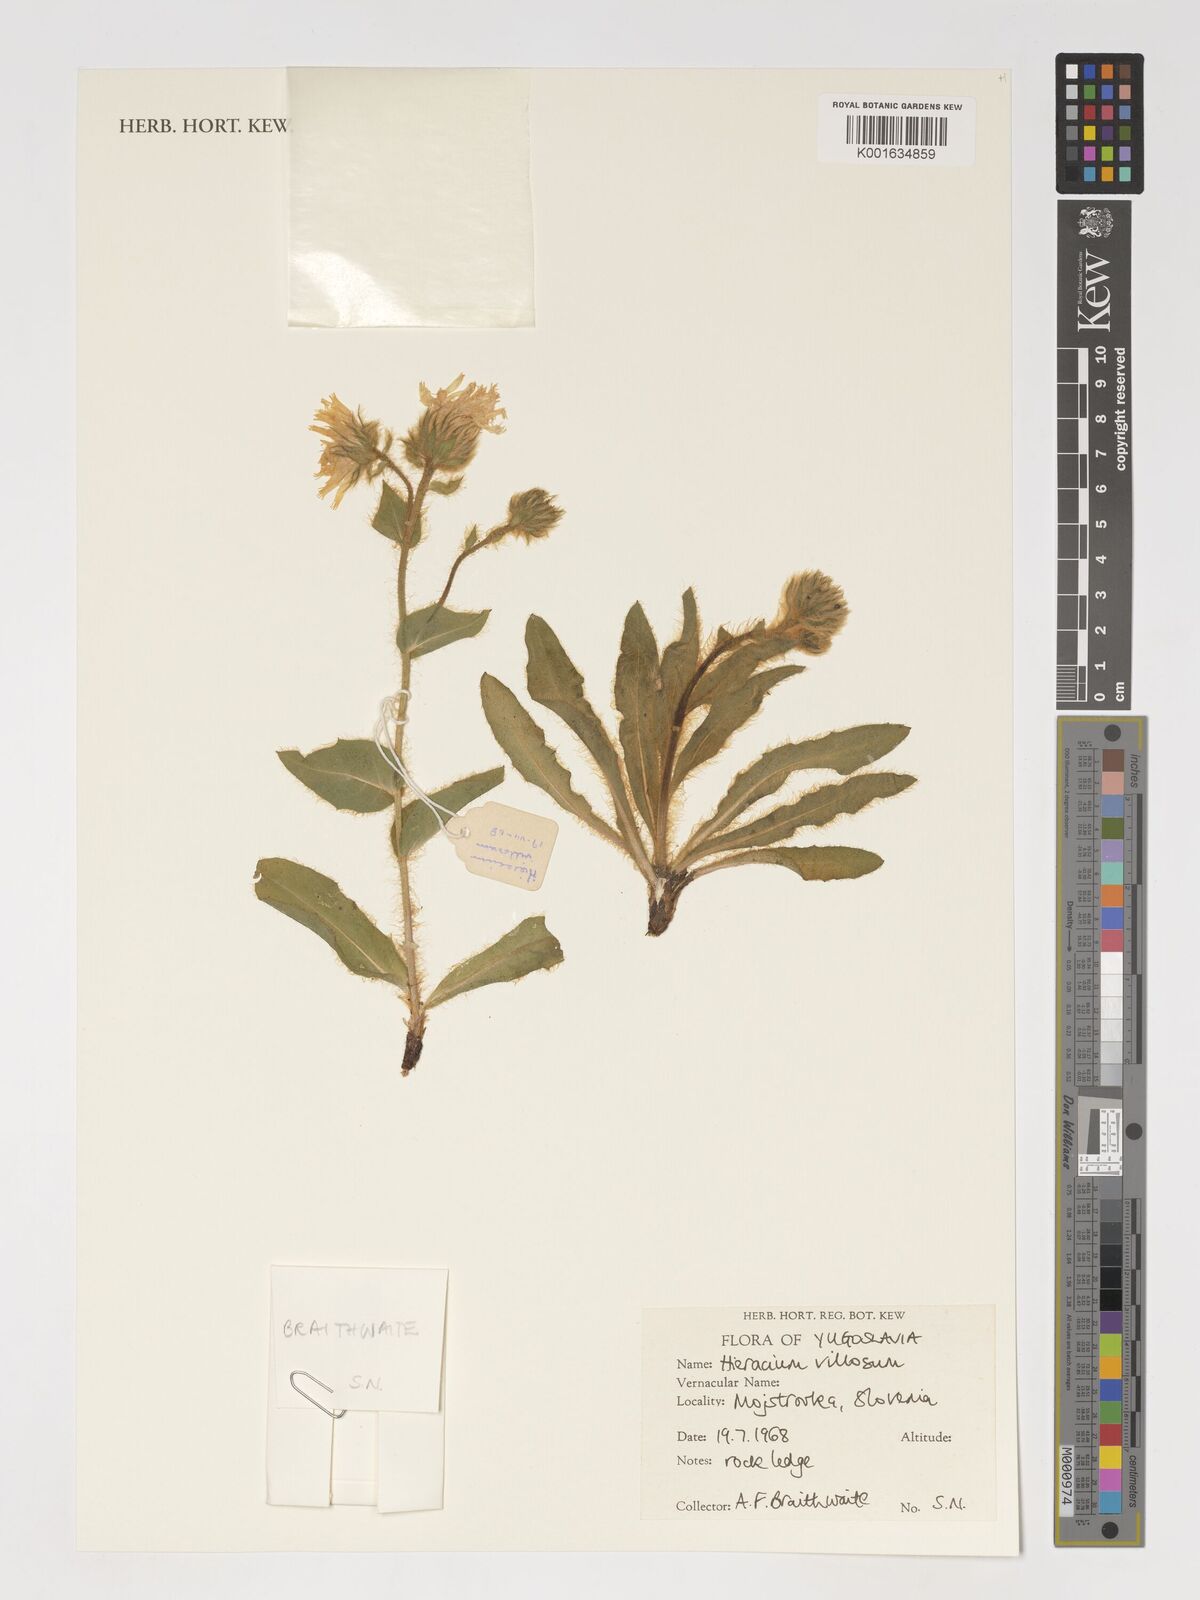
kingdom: Plantae
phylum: Tracheophyta
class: Magnoliopsida
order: Asterales
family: Asteraceae
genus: Hieracium
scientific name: Hieracium villosum
